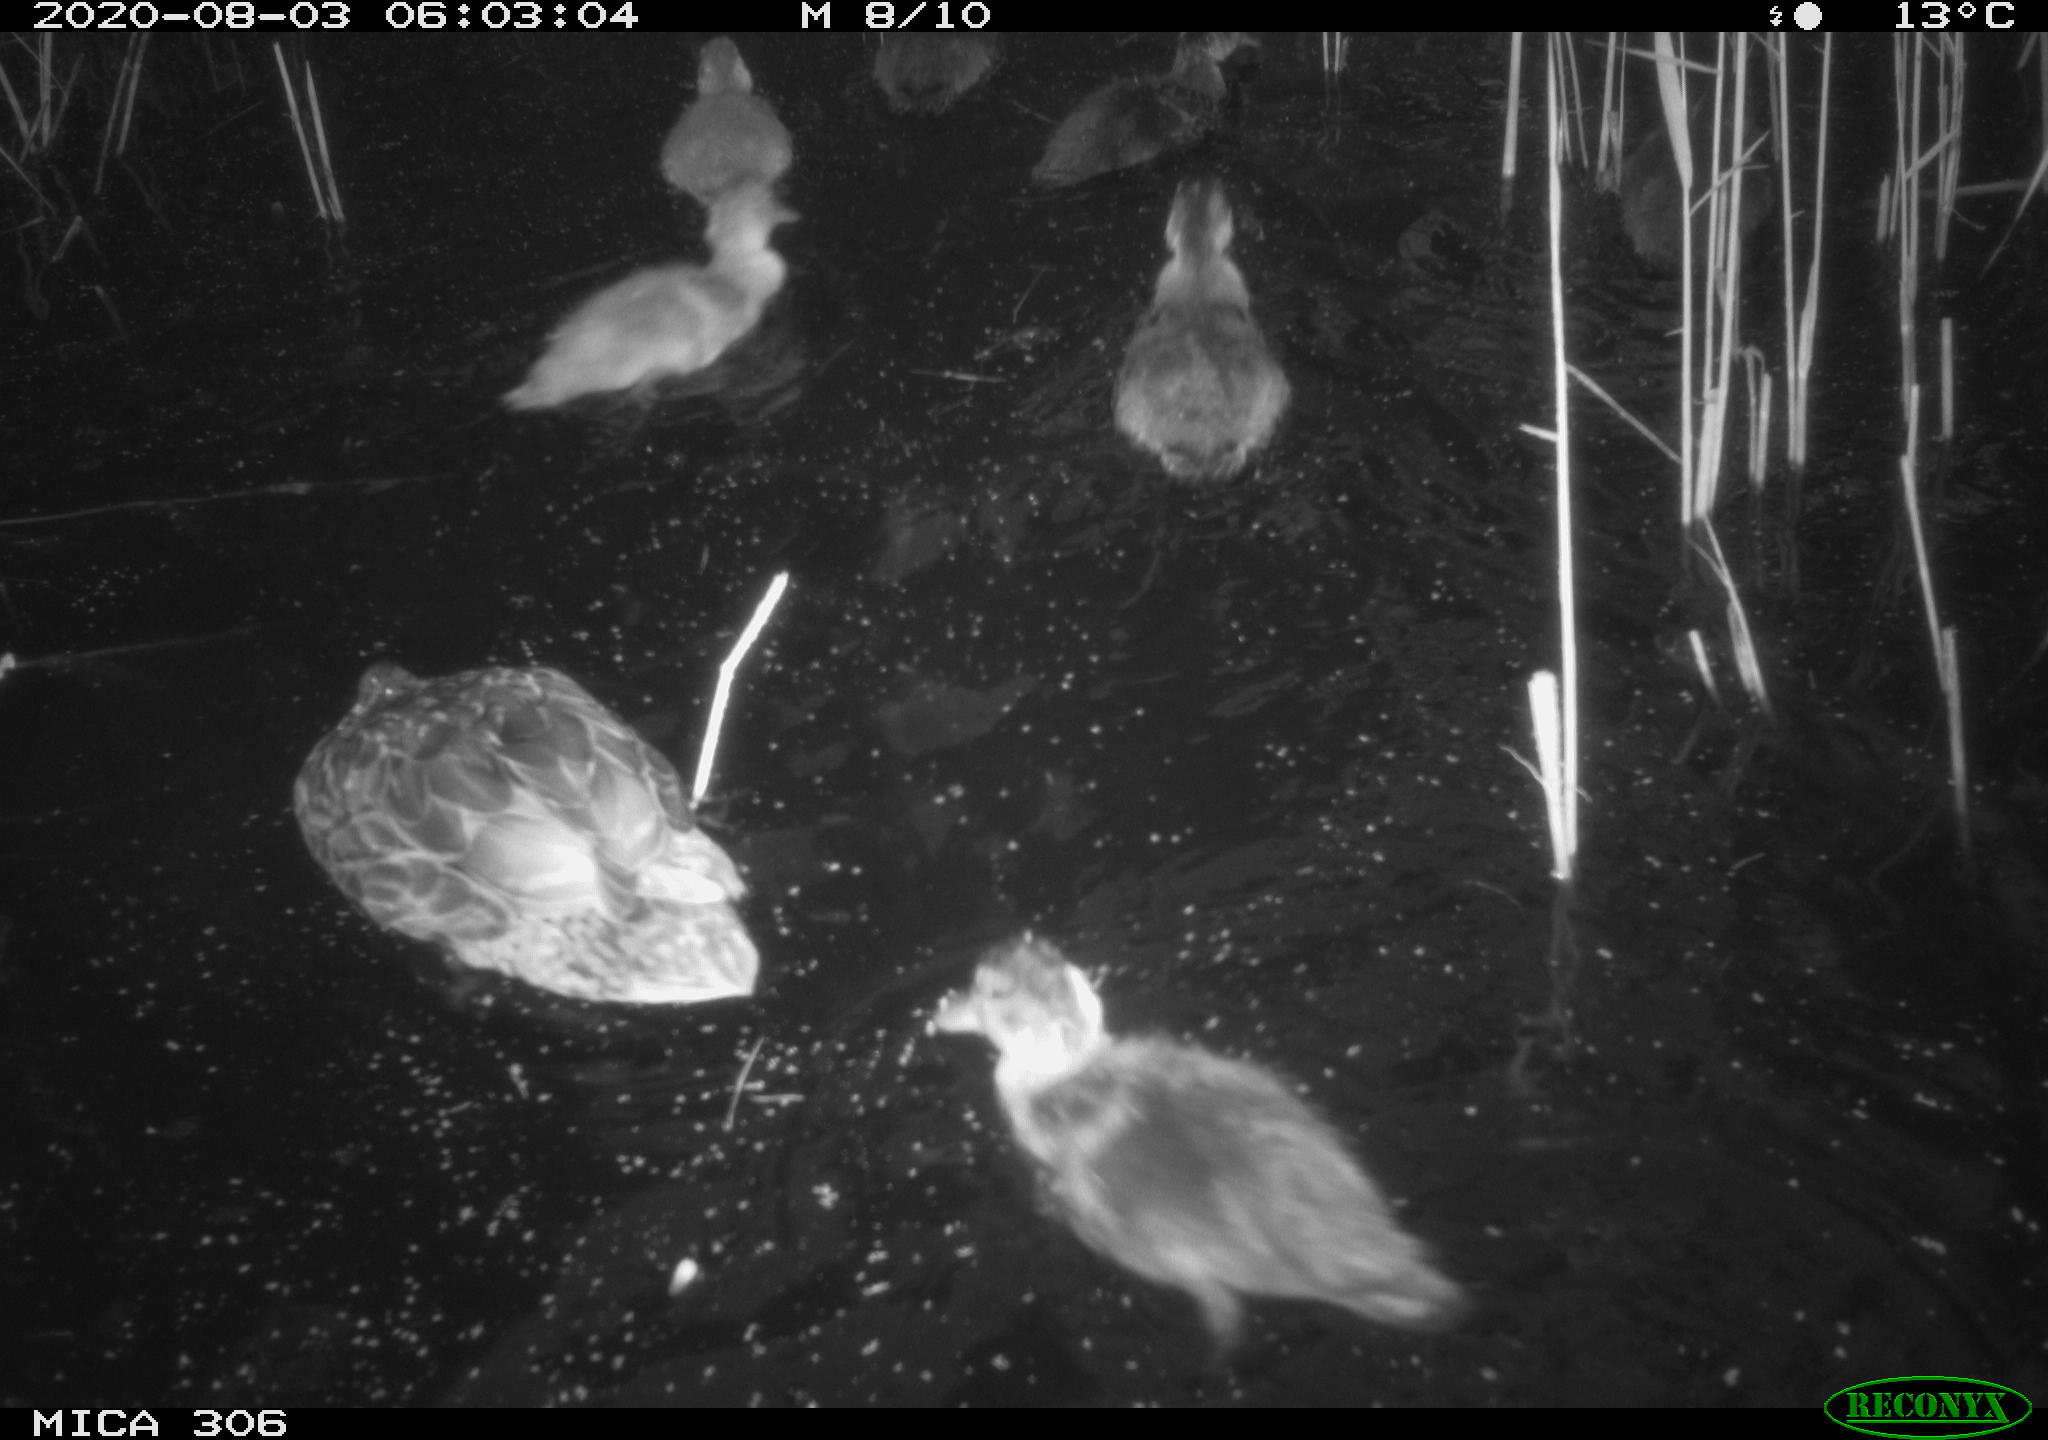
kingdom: Animalia
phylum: Chordata
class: Aves
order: Anseriformes
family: Anatidae
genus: Anas
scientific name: Anas platyrhynchos
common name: Mallard
